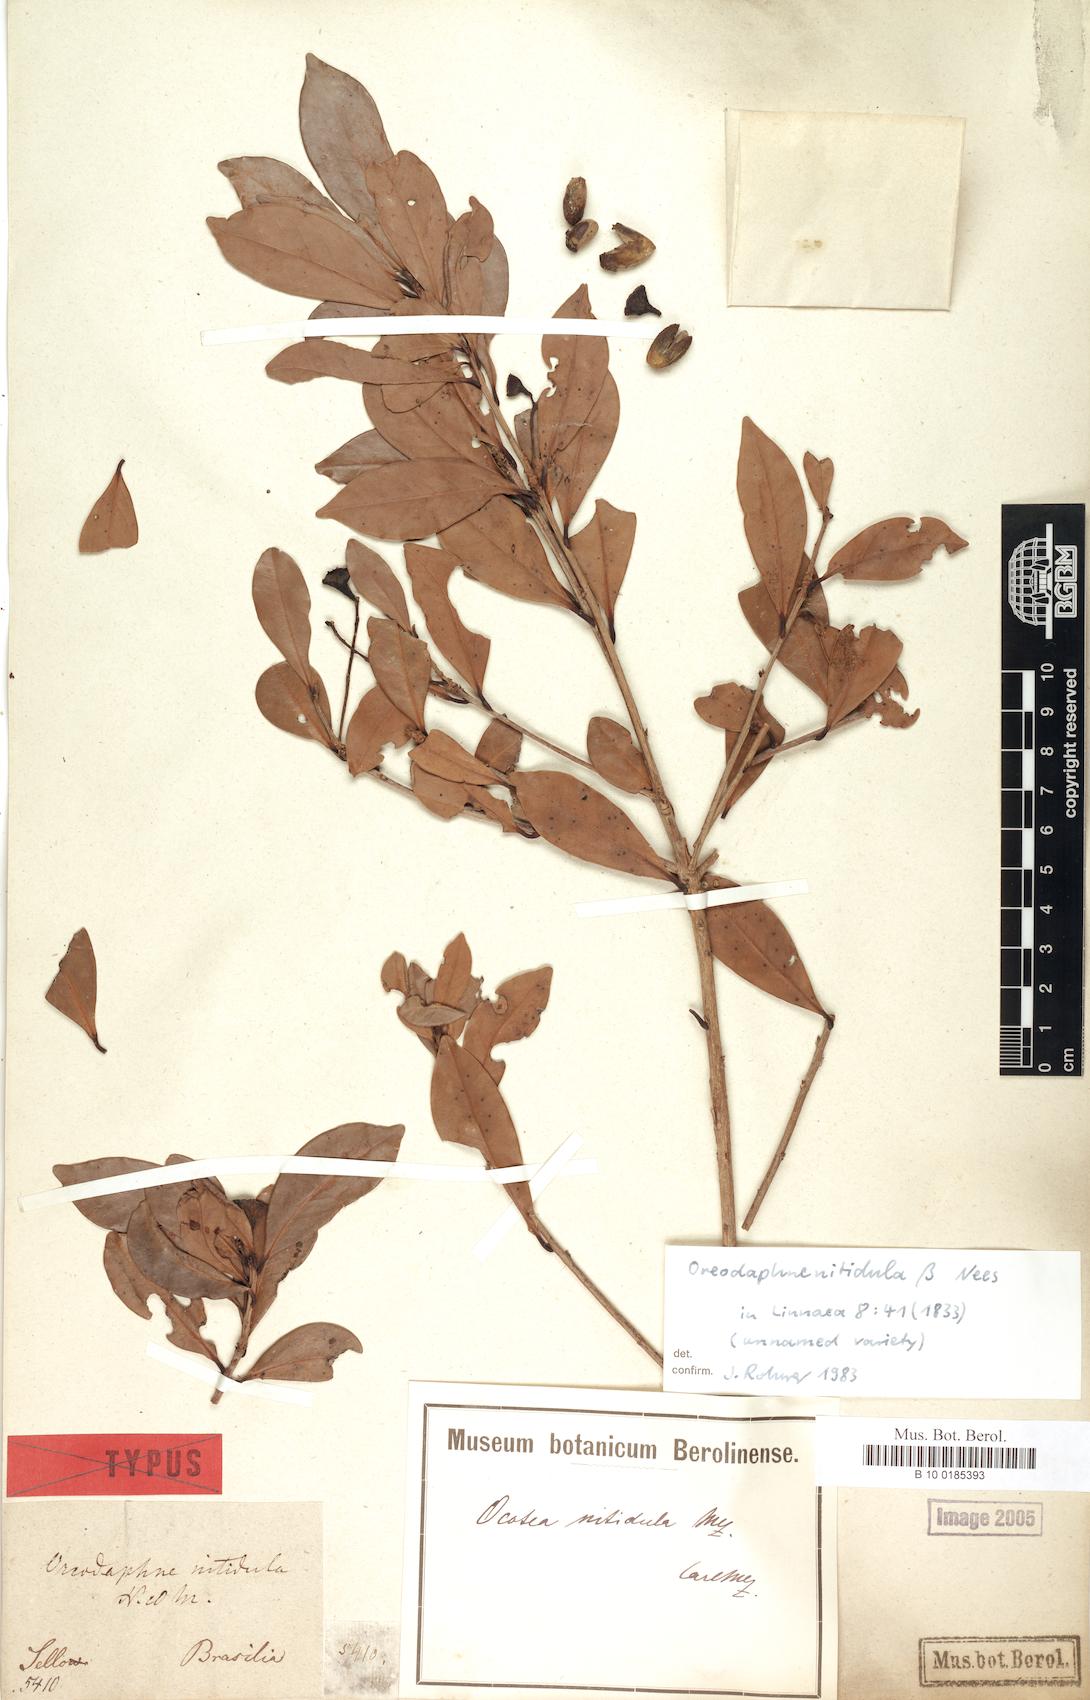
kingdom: Plantae
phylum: Tracheophyta
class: Magnoliopsida
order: Laurales
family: Lauraceae
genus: Ocotea
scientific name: Ocotea lancifolia
